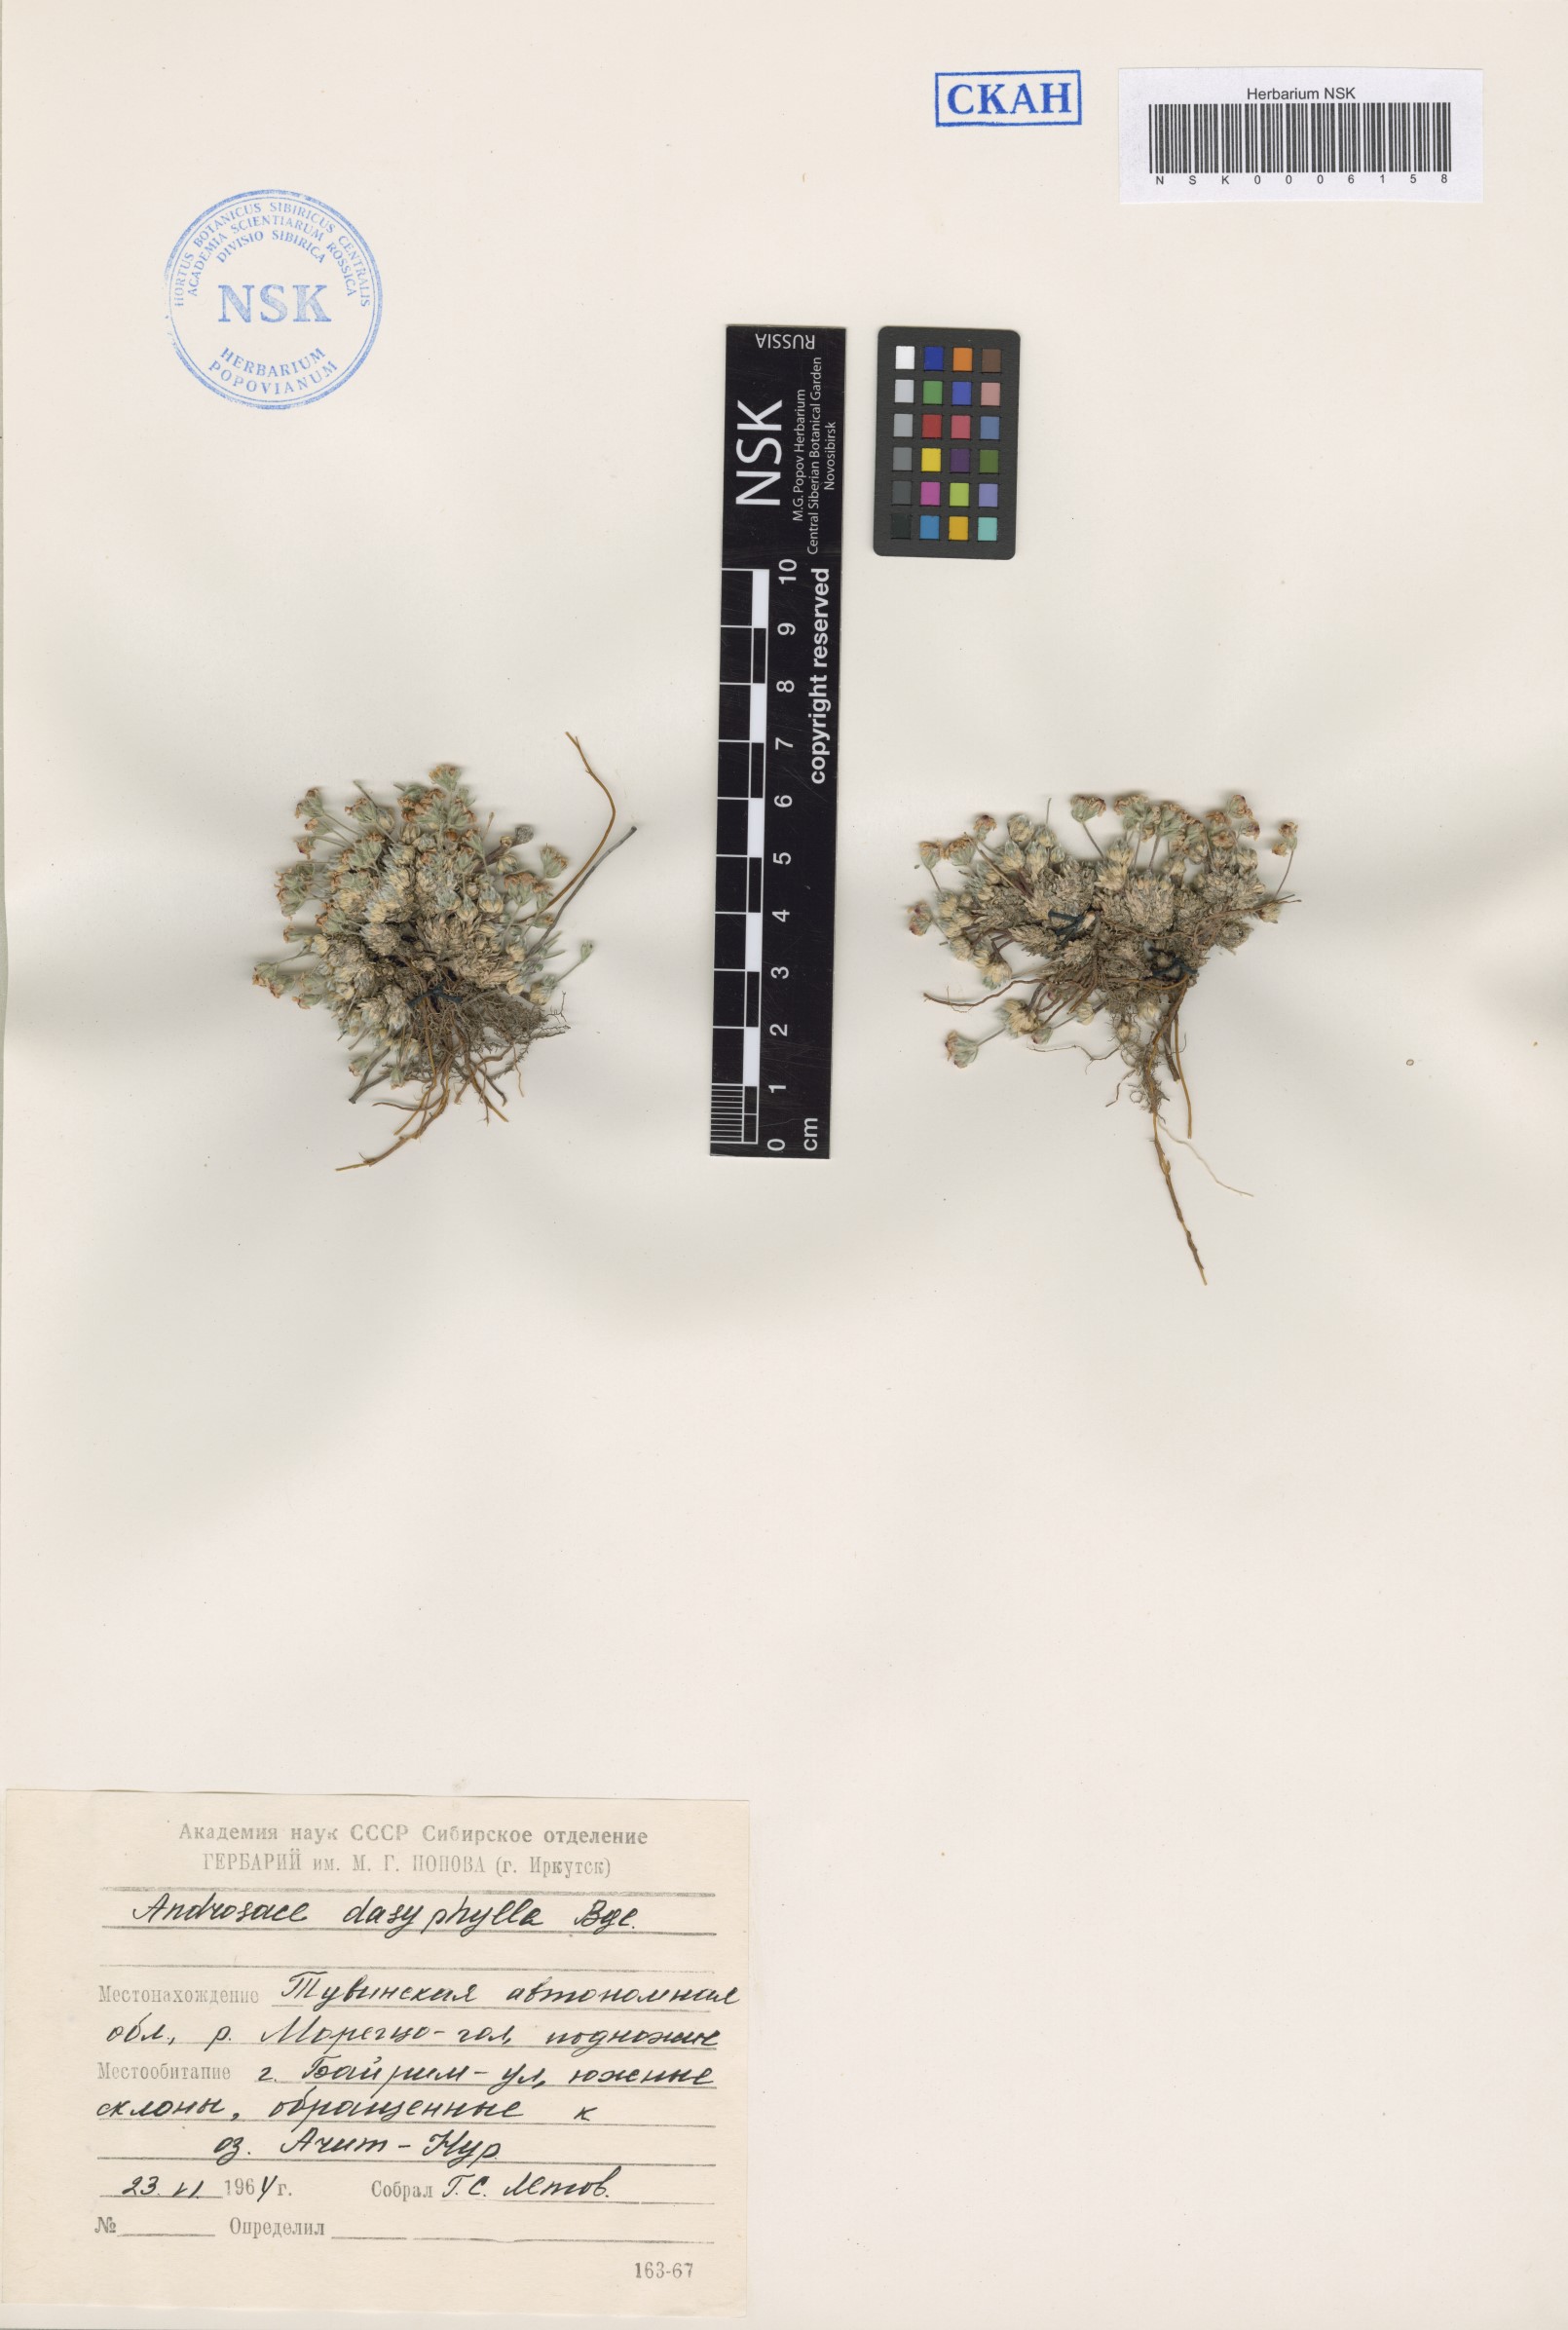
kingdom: Plantae
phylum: Tracheophyta
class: Magnoliopsida
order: Ericales
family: Primulaceae
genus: Androsace
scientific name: Androsace dasyphylla
